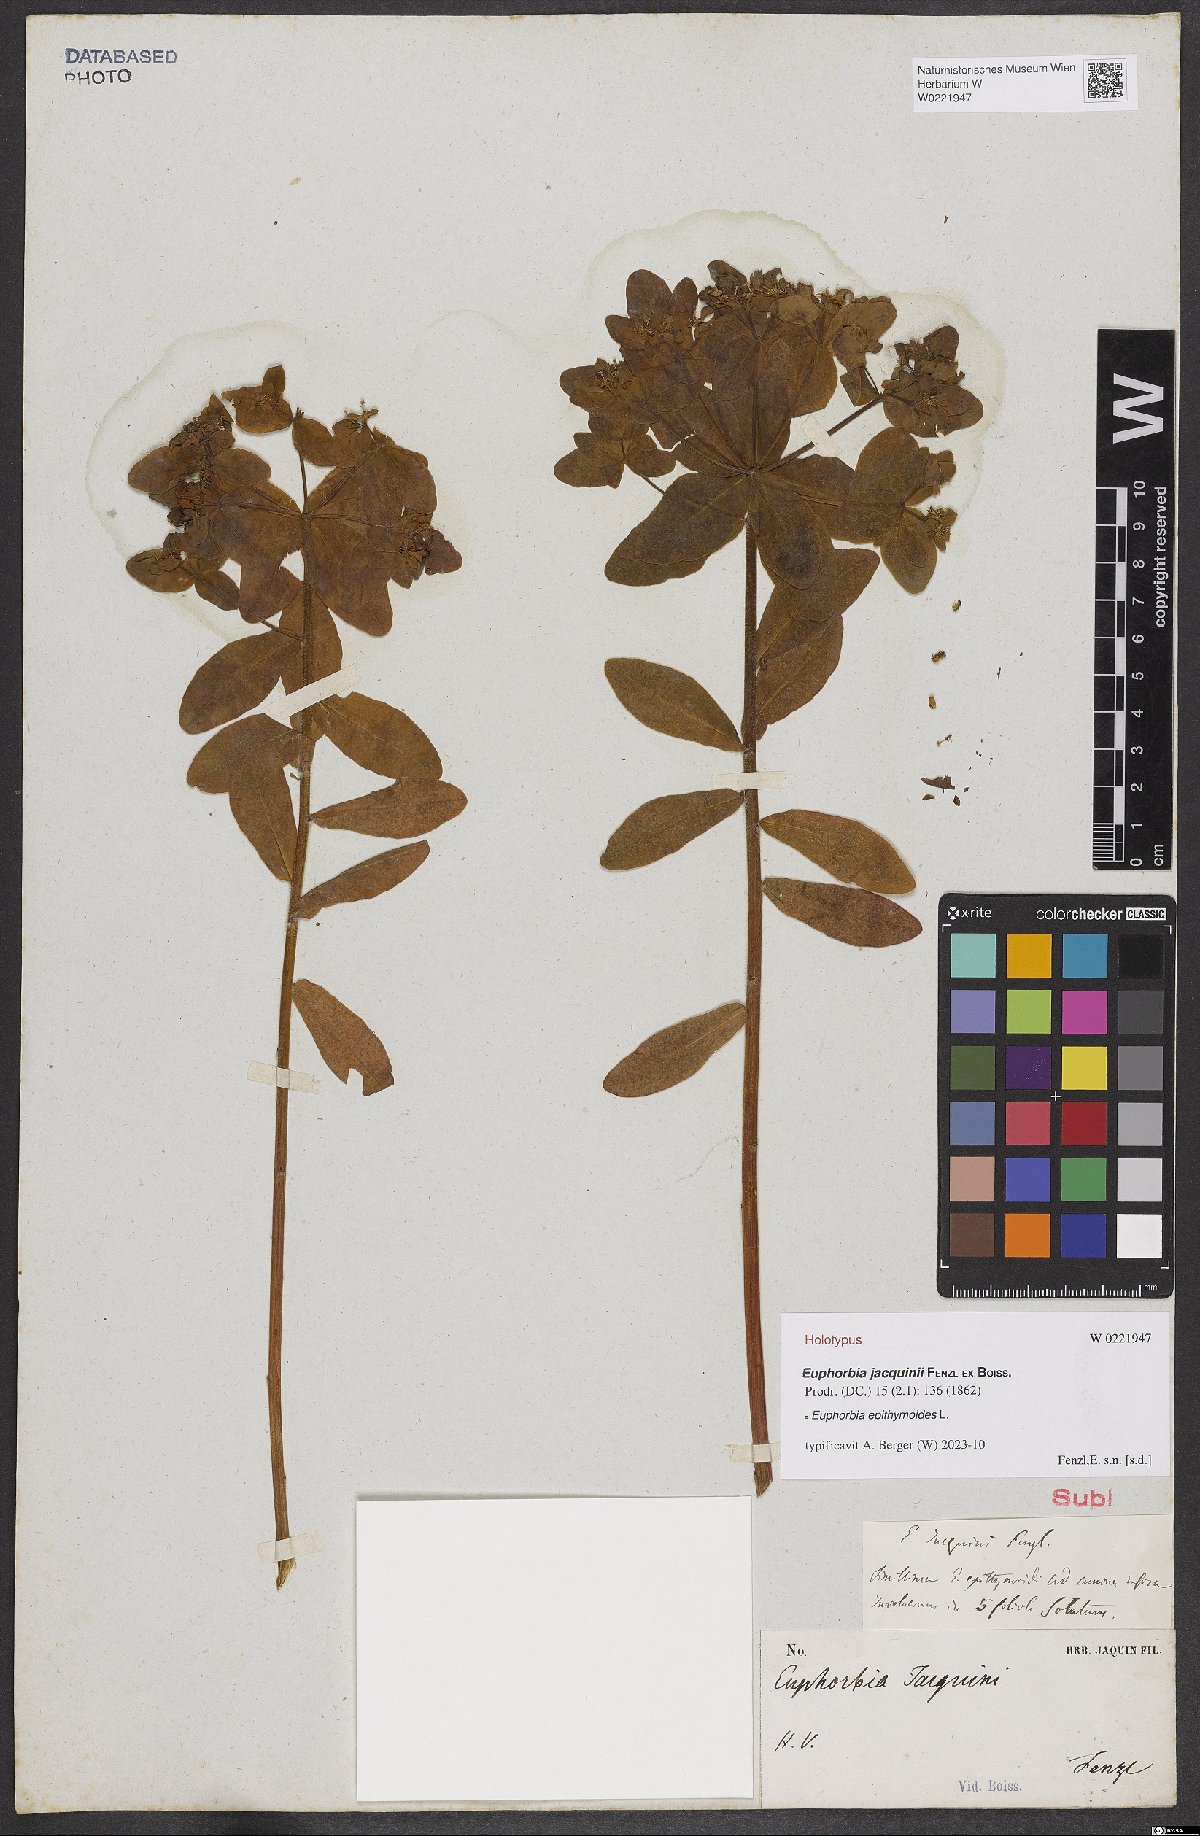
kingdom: Plantae
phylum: Tracheophyta
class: Magnoliopsida
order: Malpighiales
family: Euphorbiaceae
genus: Euphorbia
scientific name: Euphorbia epithymoides
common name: Cushion spurge
